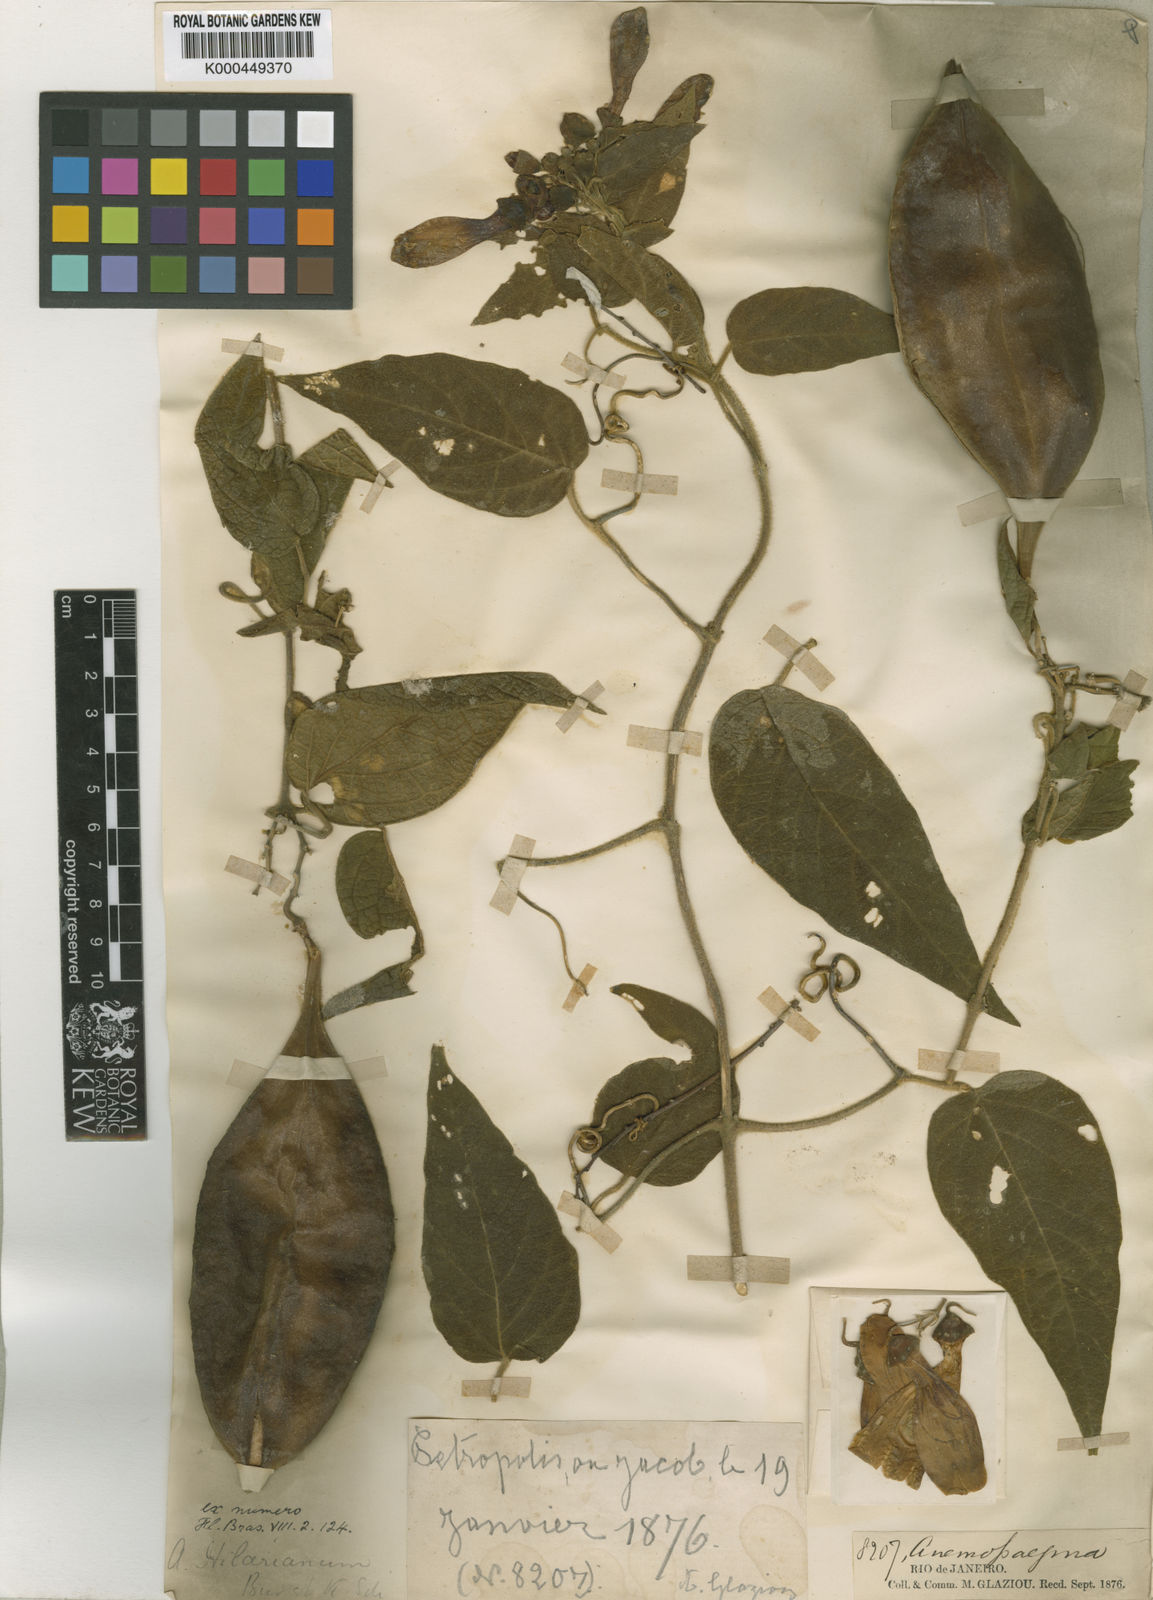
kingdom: Plantae
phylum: Tracheophyta
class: Magnoliopsida
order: Lamiales
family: Bignoniaceae
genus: Anemopaegma
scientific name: Anemopaegma hilarianum
